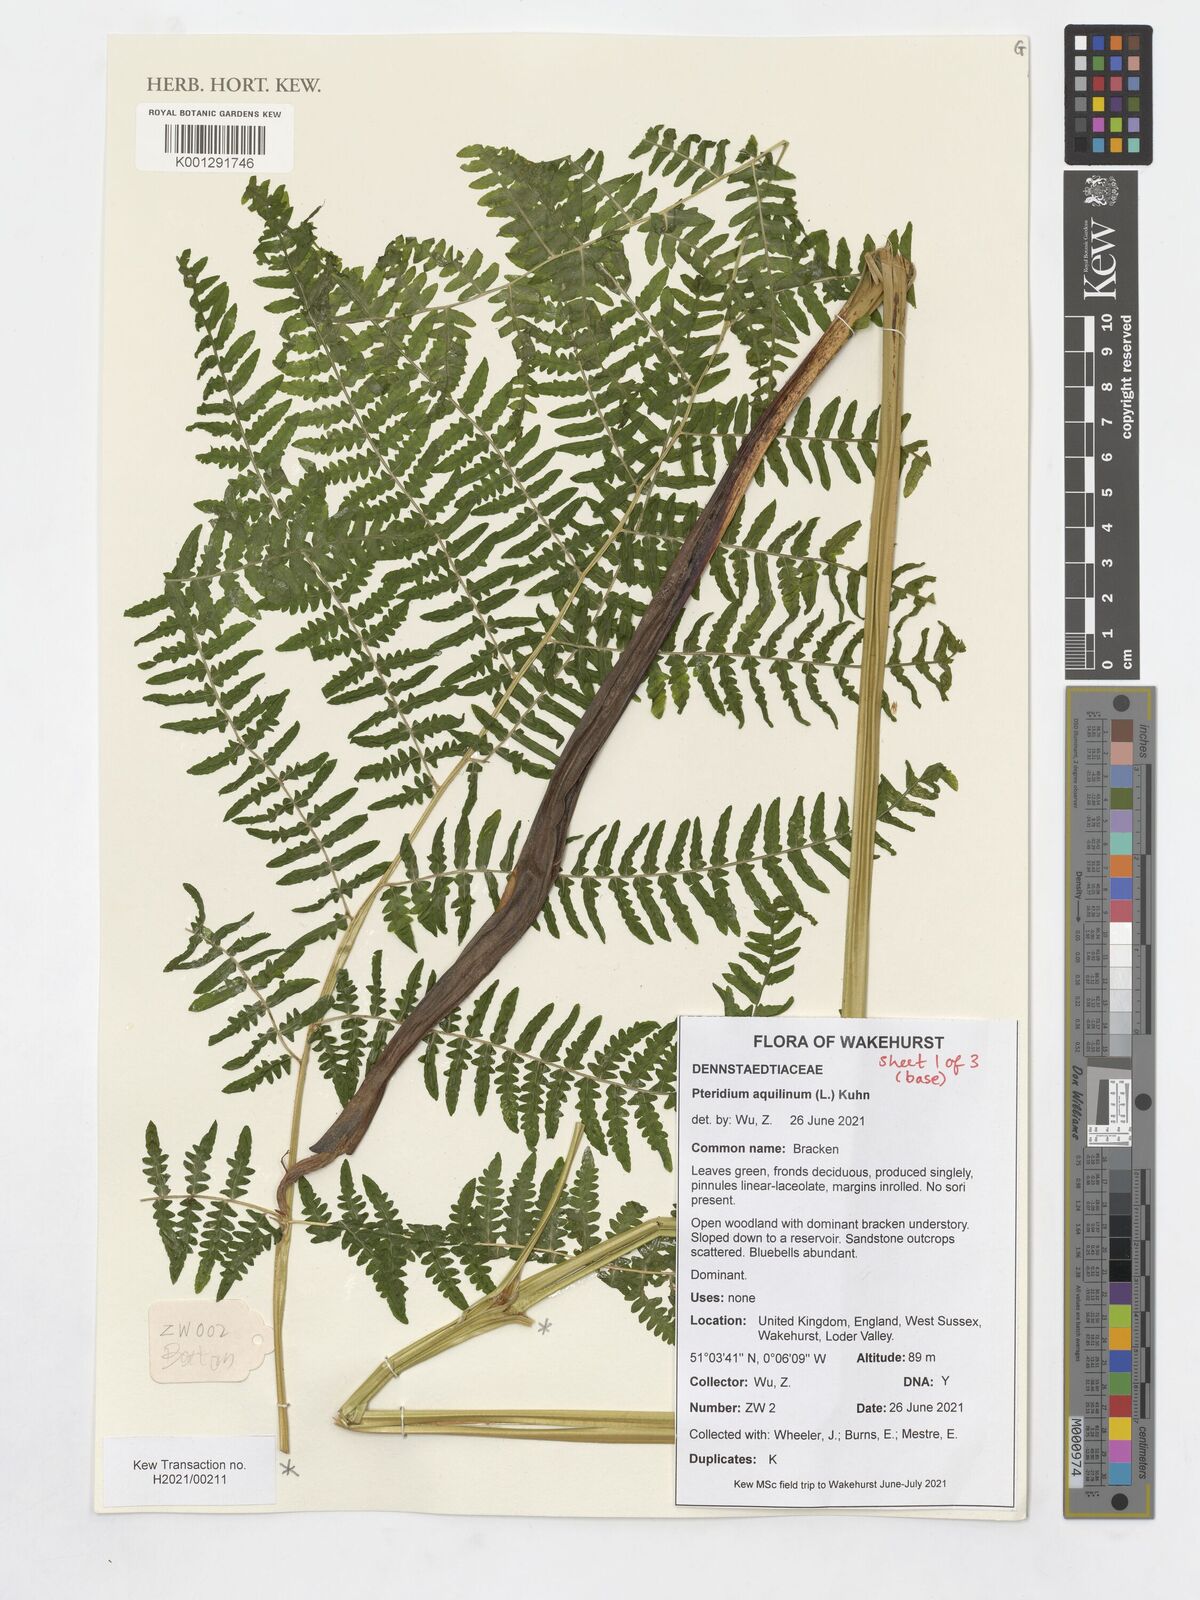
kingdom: Plantae
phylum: Tracheophyta
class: Polypodiopsida
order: Polypodiales
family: Dennstaedtiaceae
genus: Pteridium
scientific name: Pteridium aquilinum
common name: Bracken
